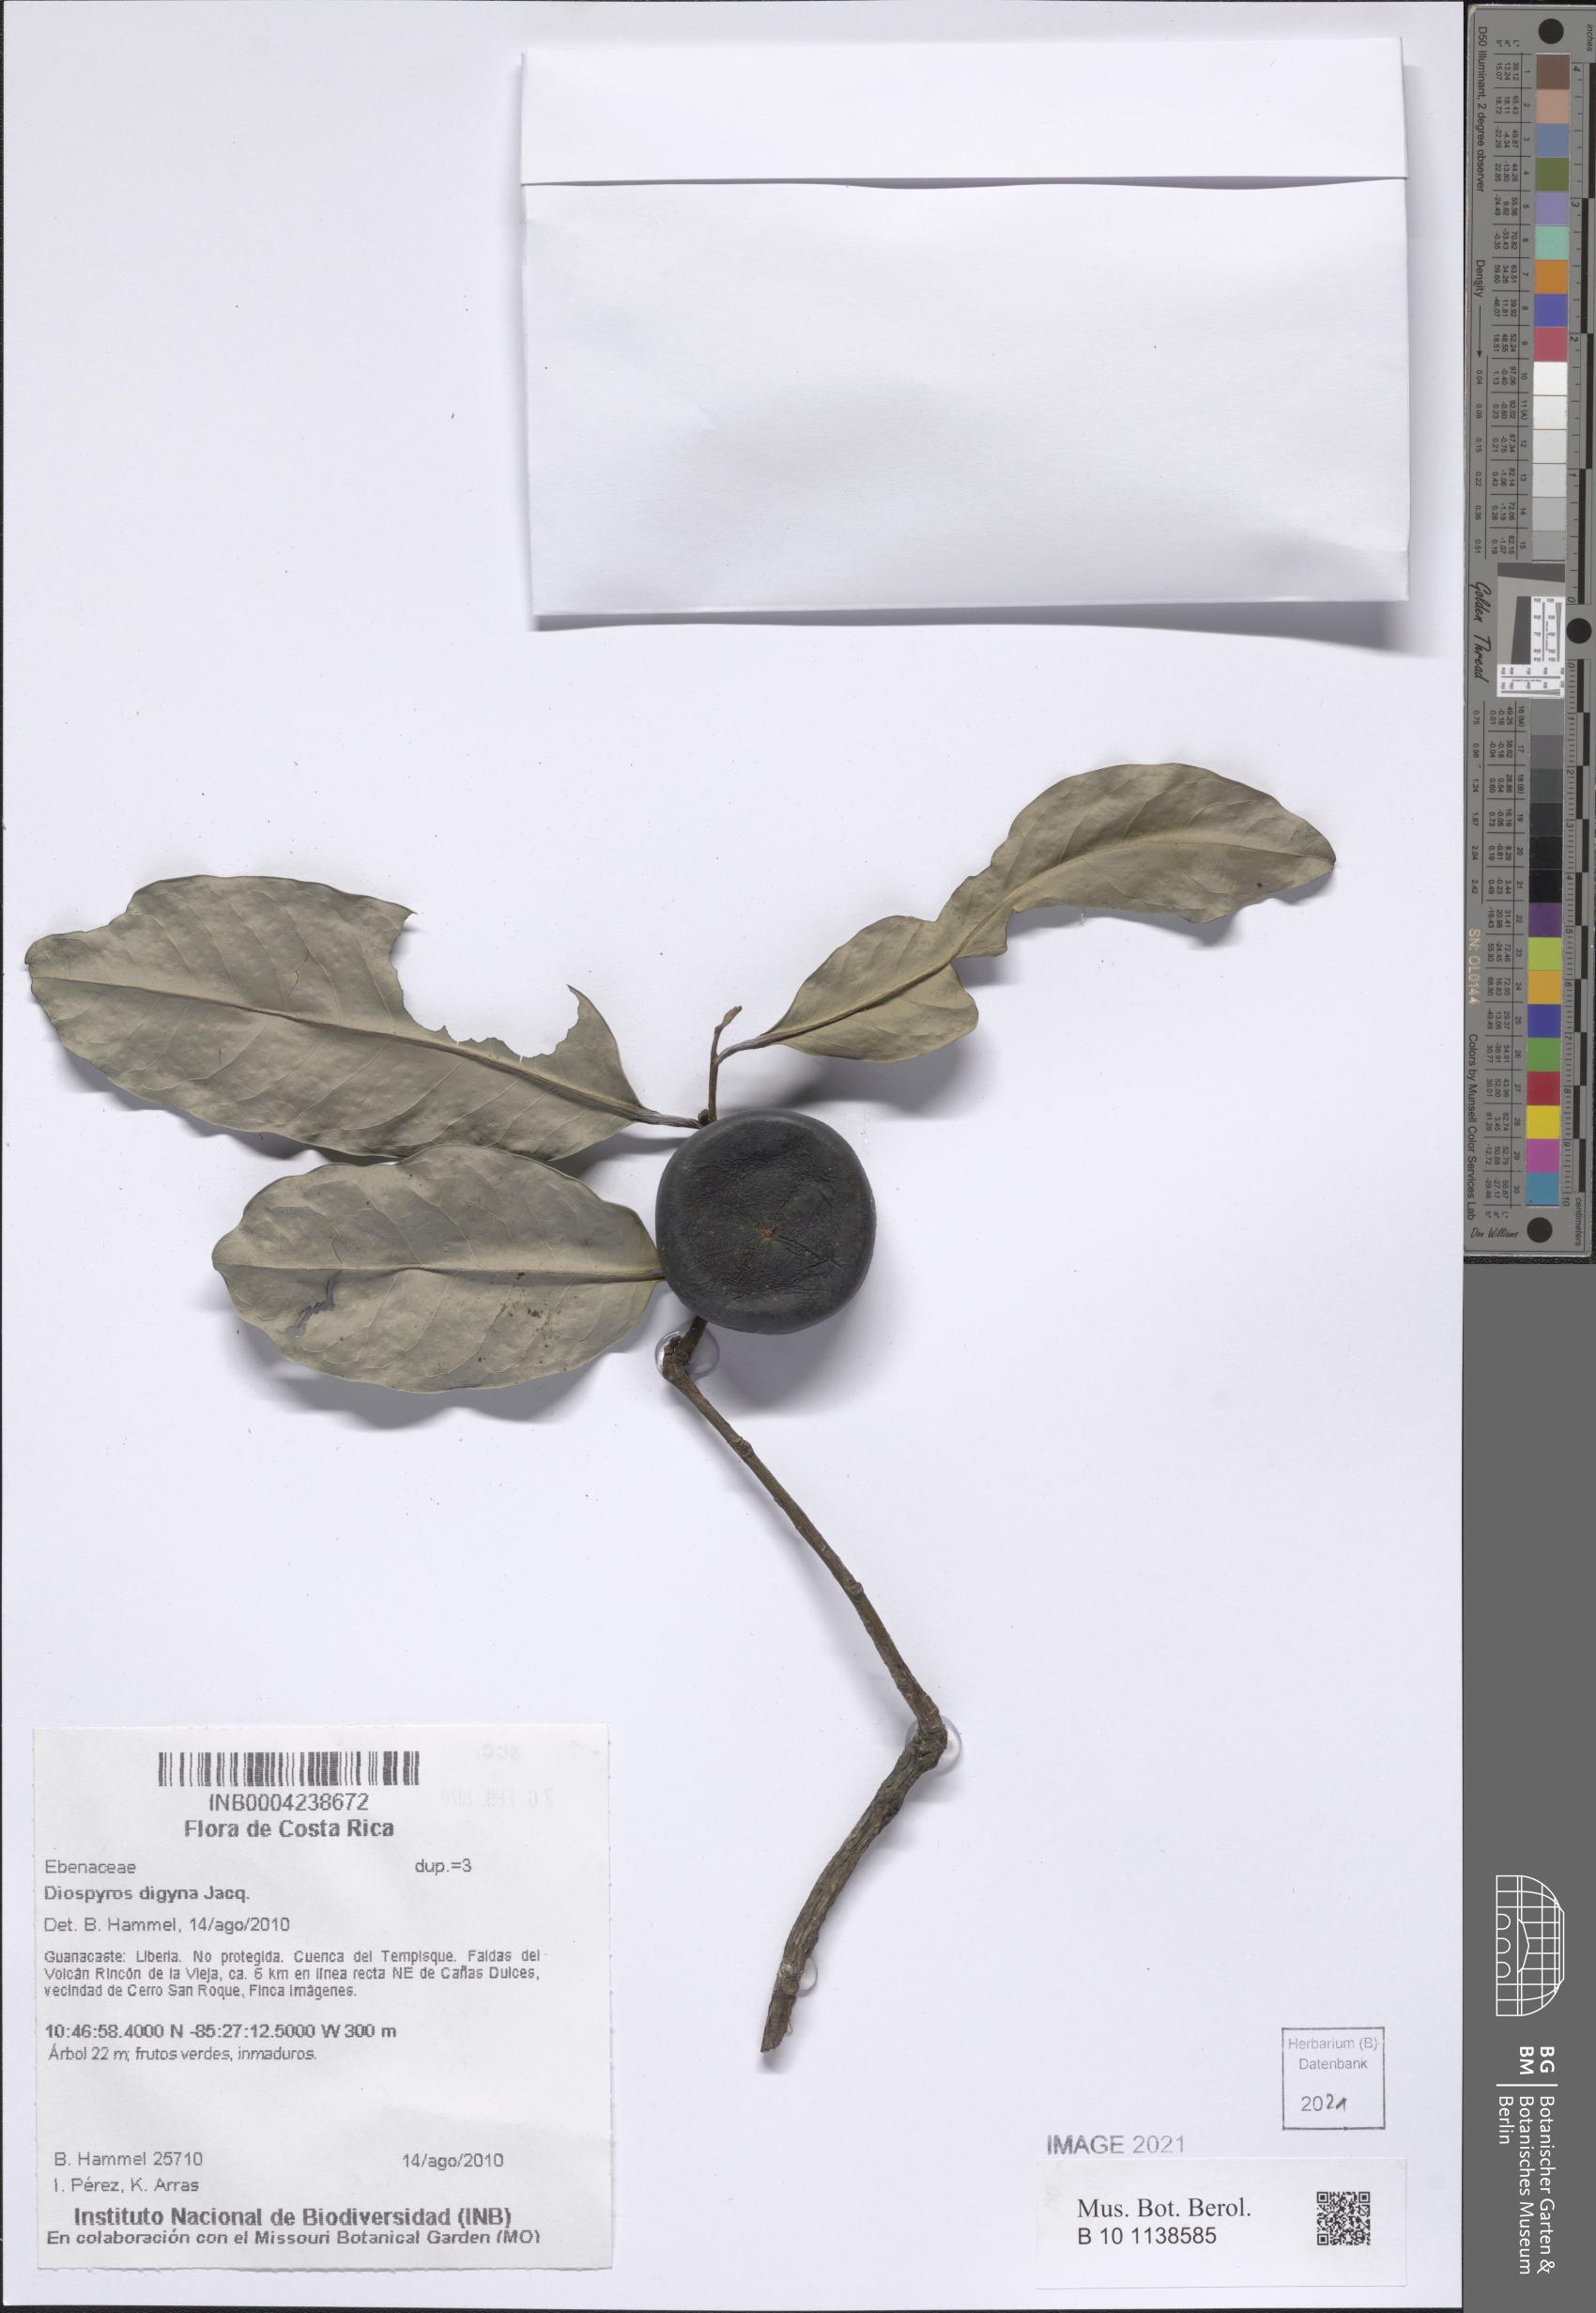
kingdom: Plantae
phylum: Tracheophyta
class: Magnoliopsida
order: Ericales
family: Ebenaceae
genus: Diospyros
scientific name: Diospyros nigra
